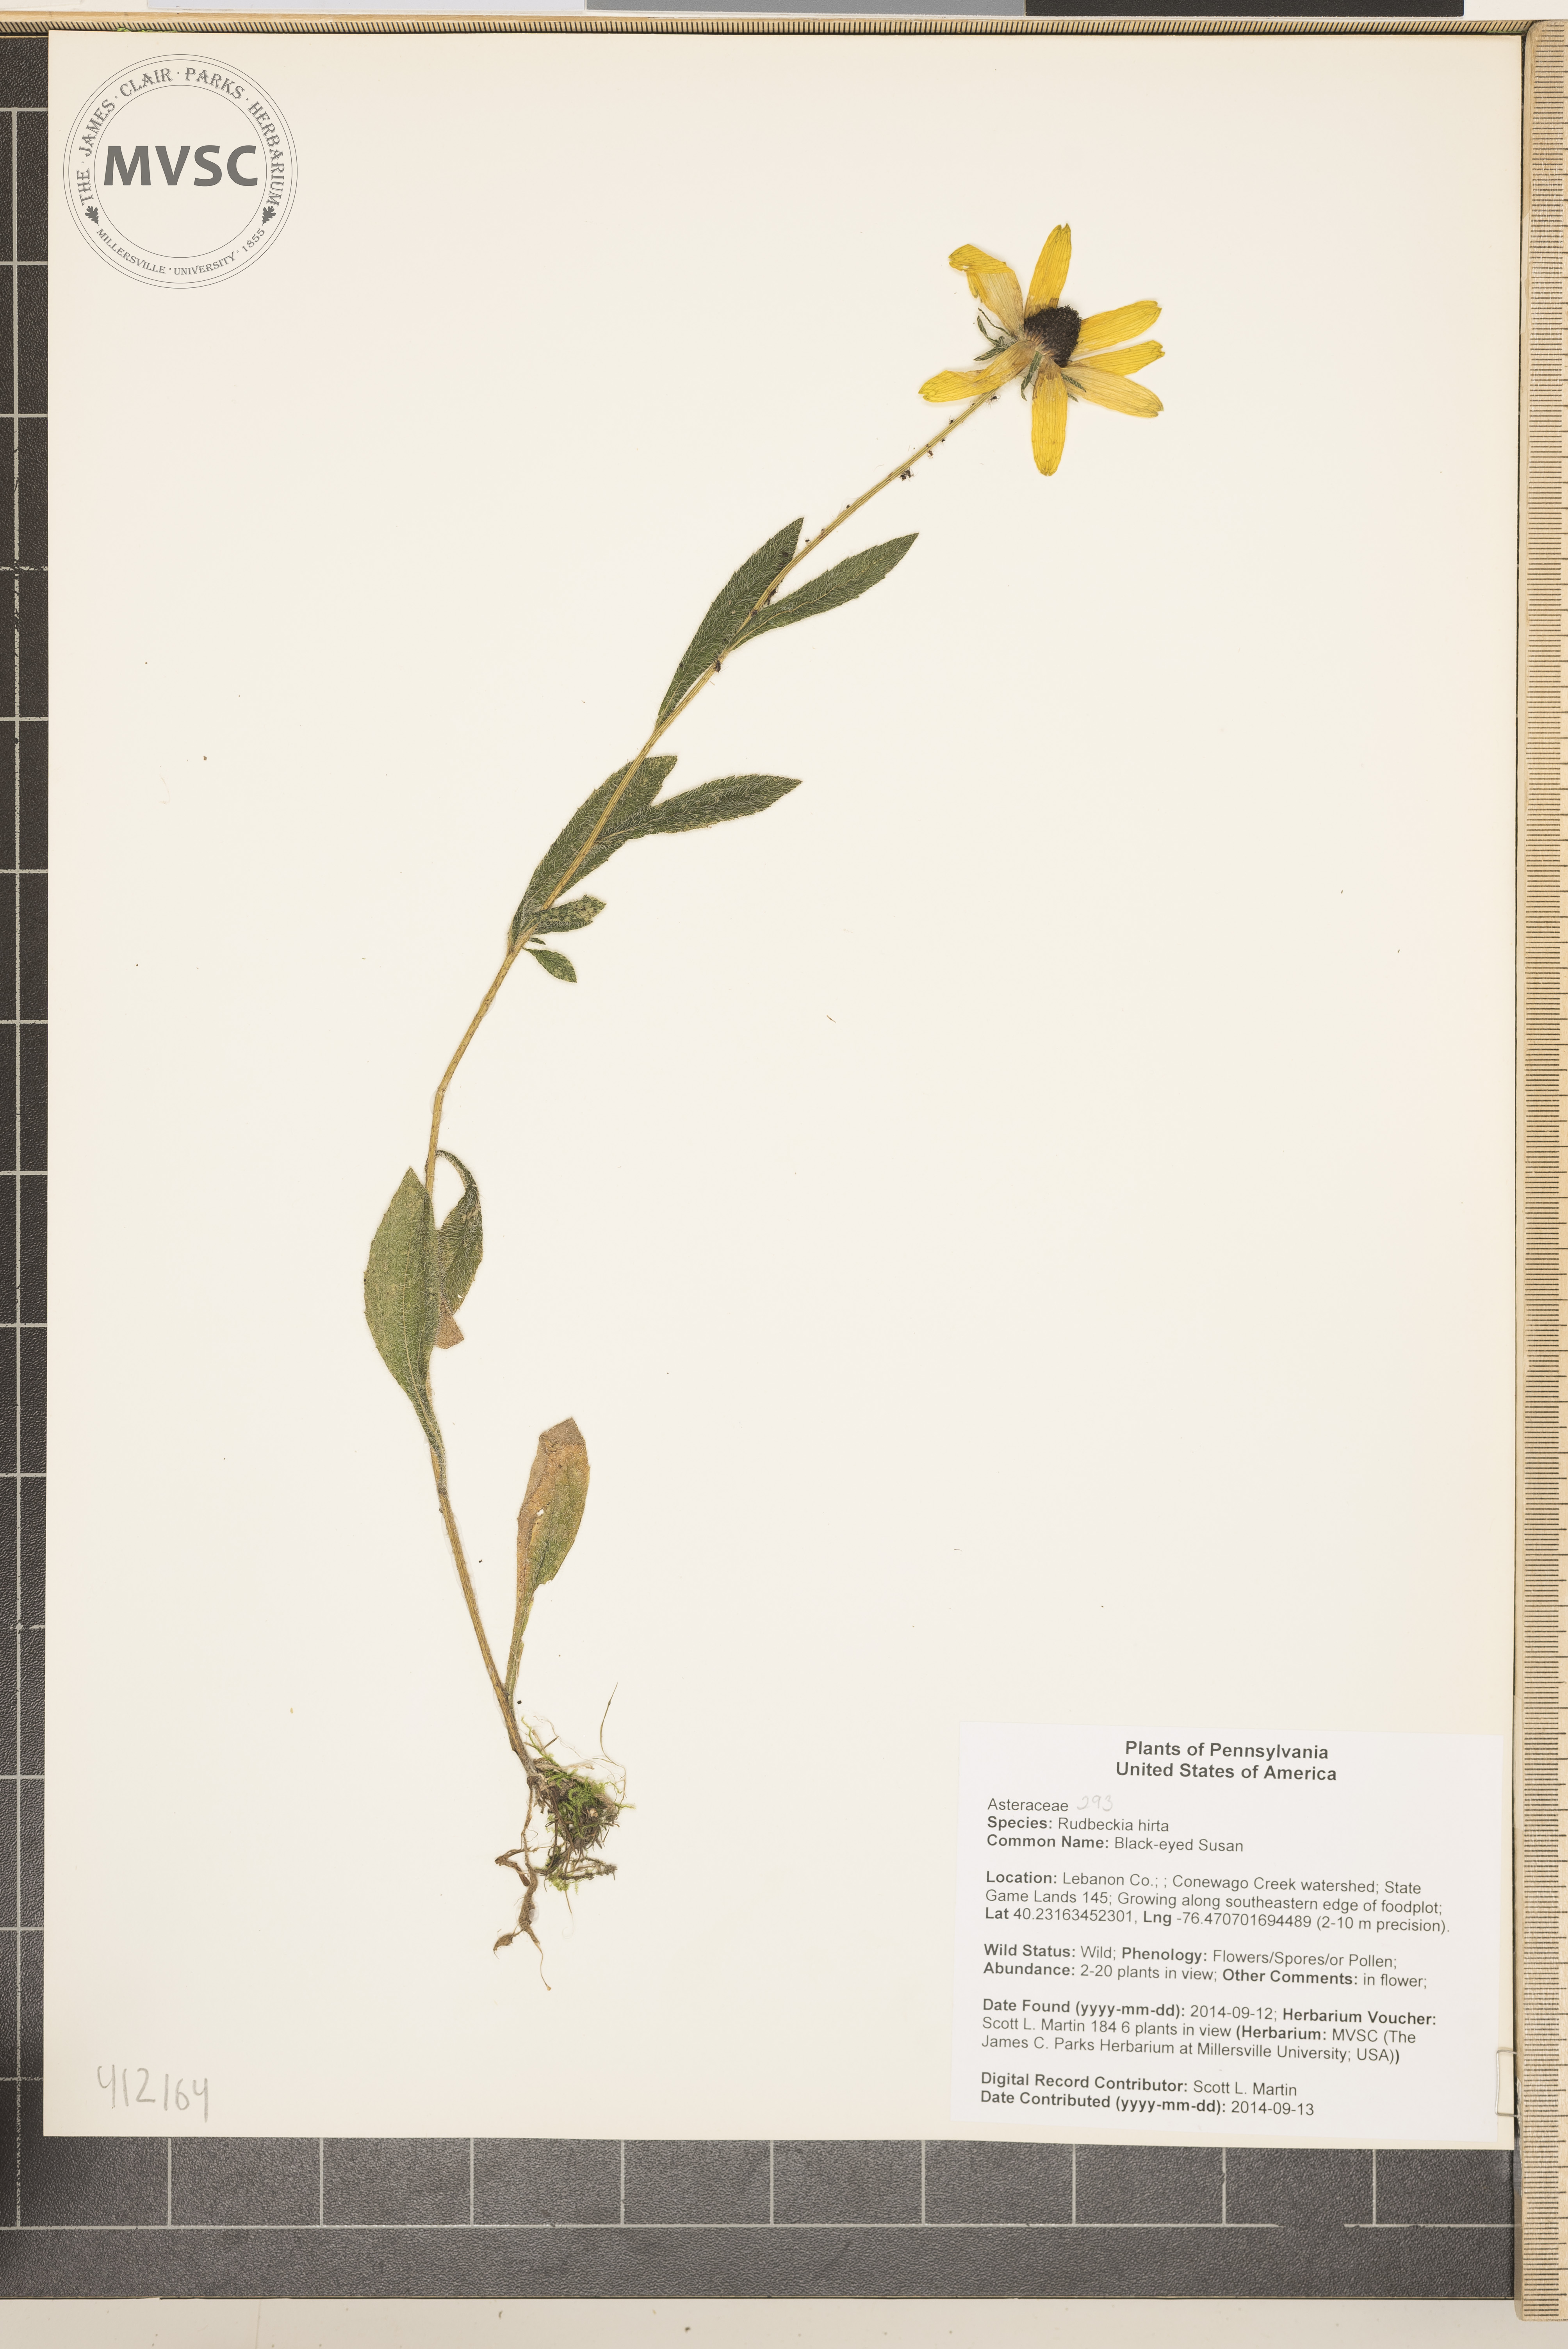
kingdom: Plantae
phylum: Tracheophyta
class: Magnoliopsida
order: Asterales
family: Asteraceae
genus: Rudbeckia
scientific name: Rudbeckia hirta
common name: Blackeyed Susan
